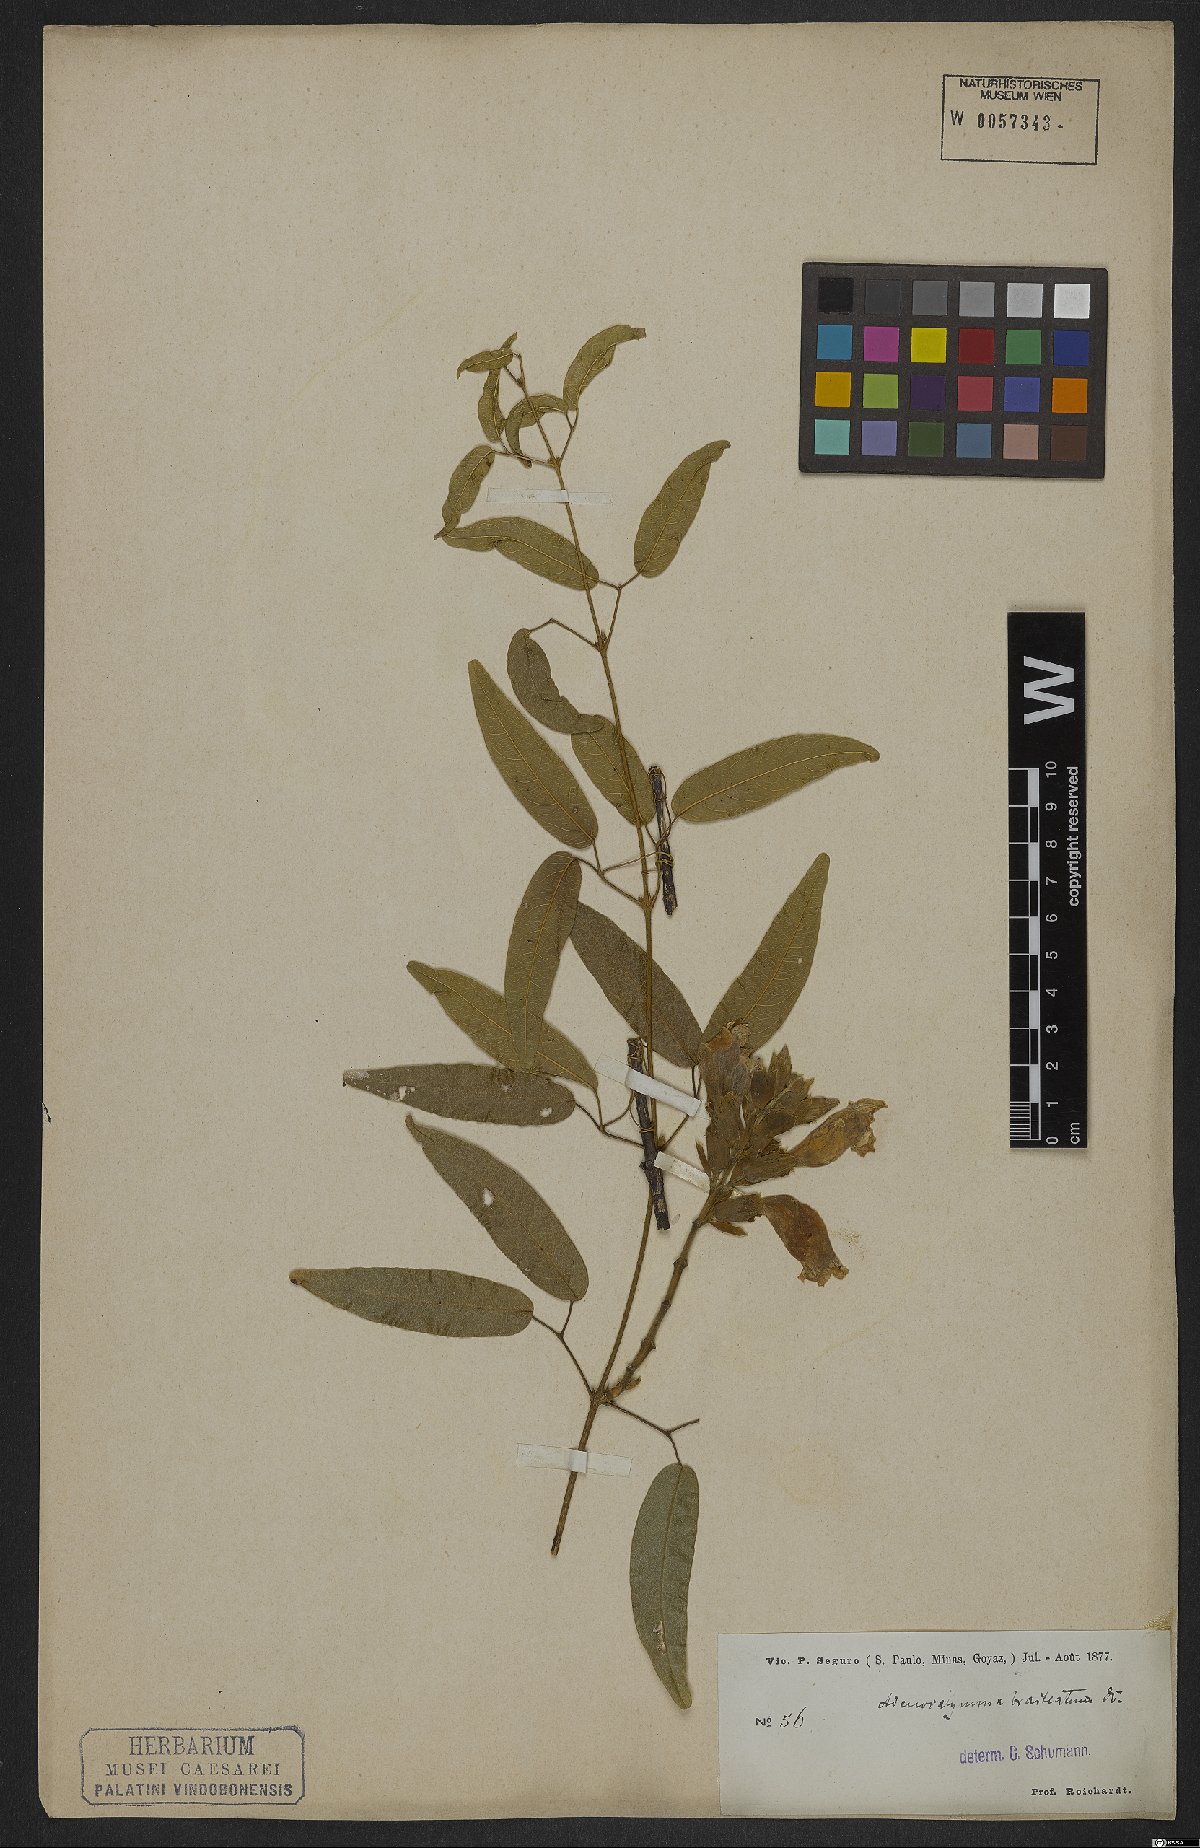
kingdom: Plantae
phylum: Tracheophyta
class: Magnoliopsida
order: Lamiales
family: Bignoniaceae
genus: Adenocalymma
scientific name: Adenocalymma bracteatum
